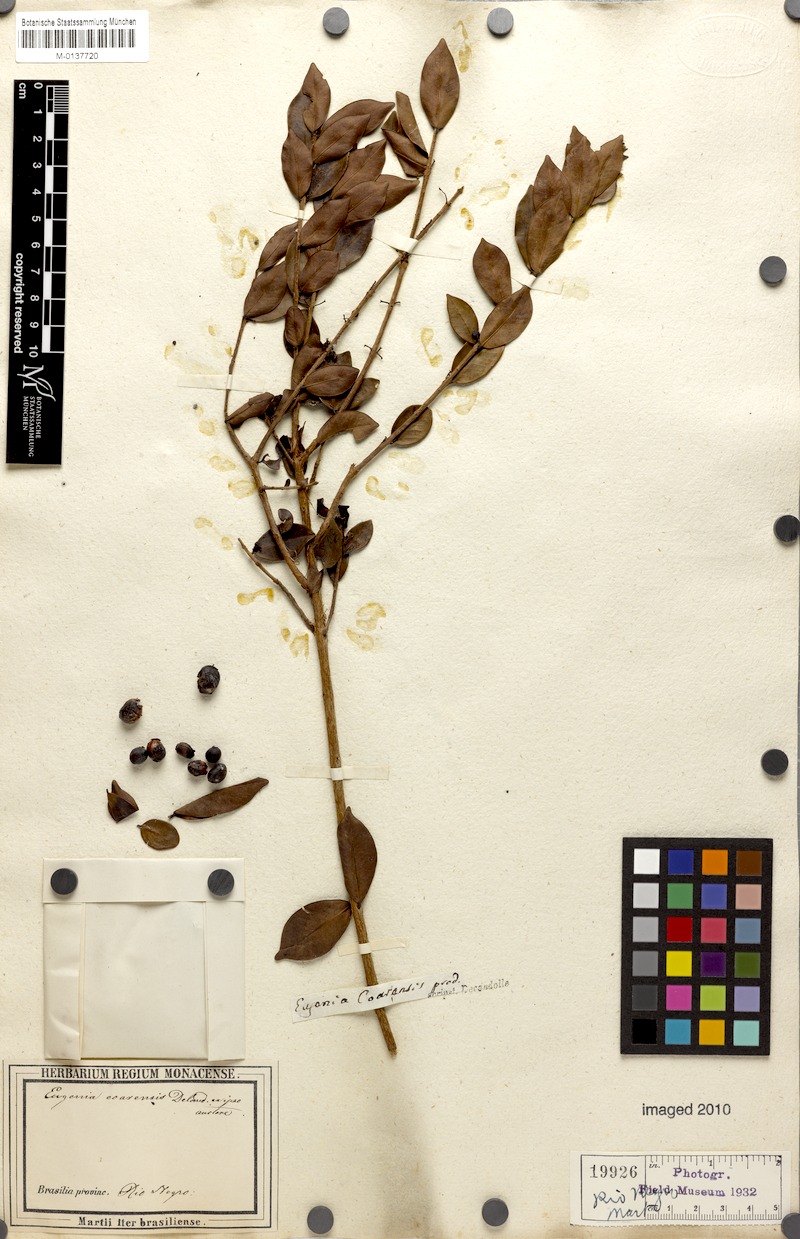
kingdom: Plantae
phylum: Tracheophyta
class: Magnoliopsida
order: Myrtales
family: Myrtaceae
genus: Eugenia
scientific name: Eugenia punicifolia
